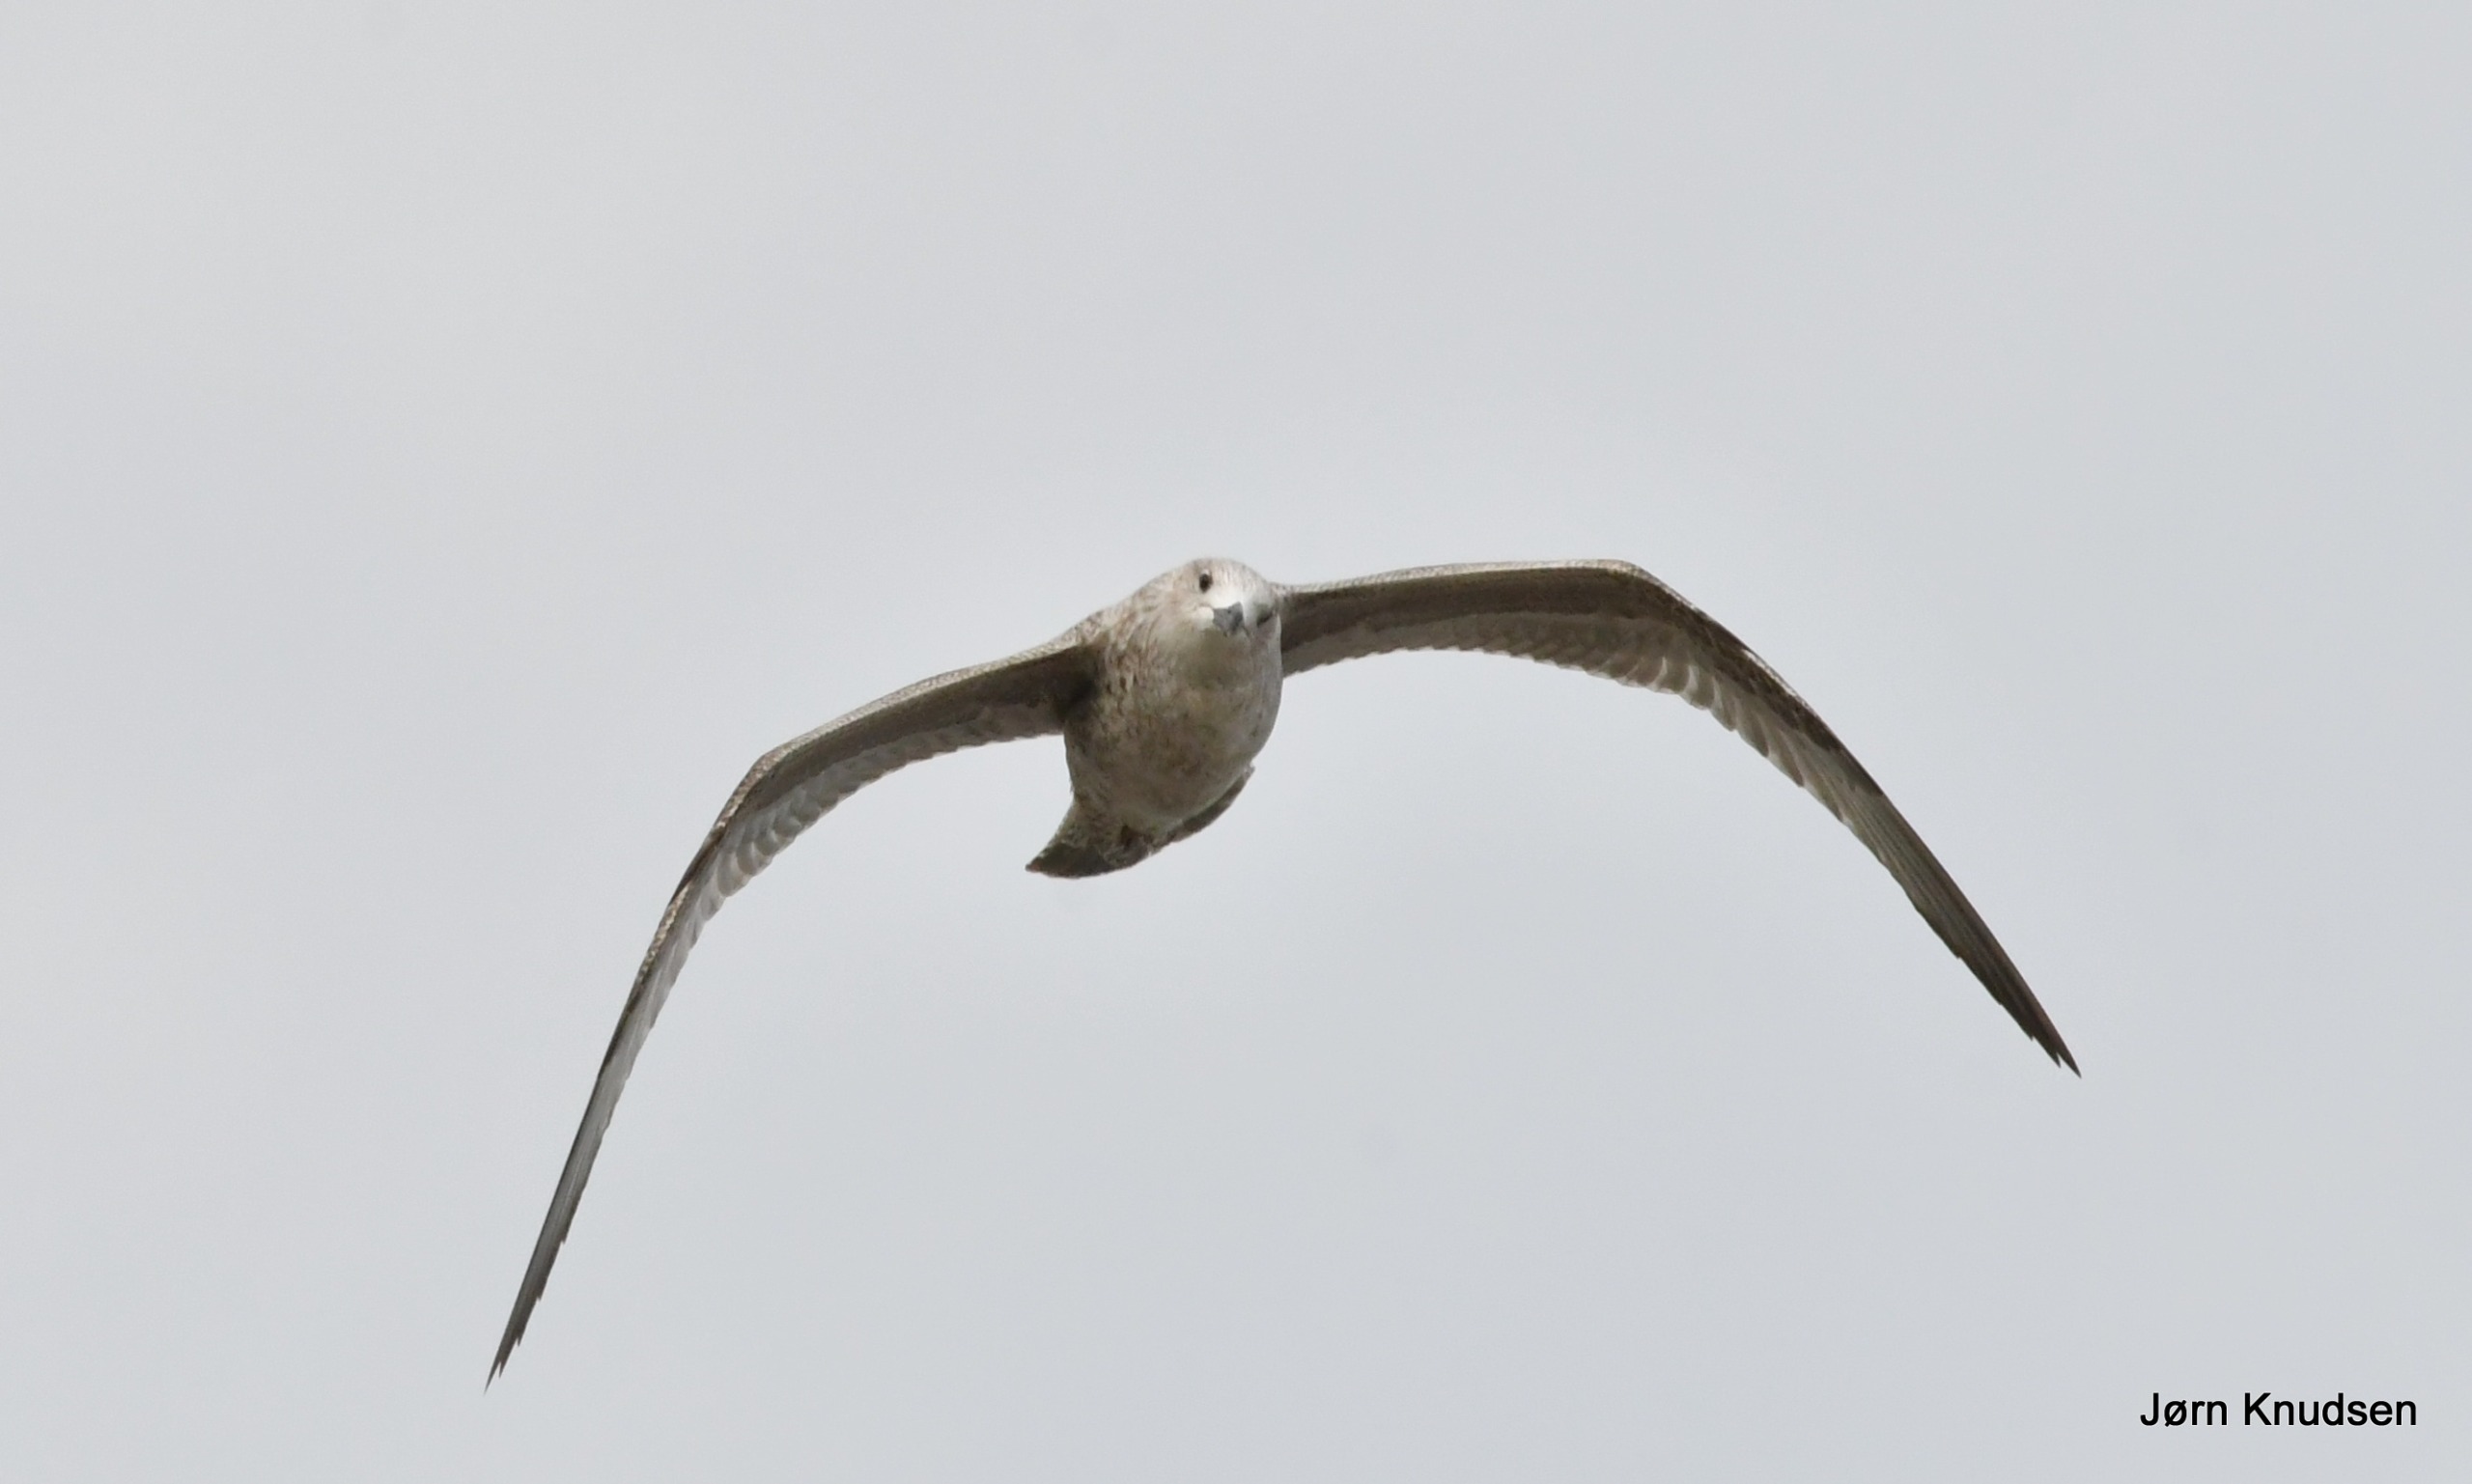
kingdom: Animalia
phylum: Chordata
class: Aves
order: Charadriiformes
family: Laridae
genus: Larus
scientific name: Larus argentatus
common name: Sølvmåge
